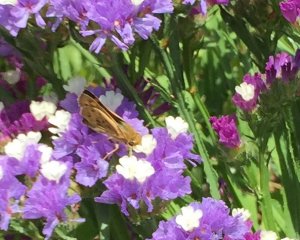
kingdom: Animalia
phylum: Arthropoda
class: Insecta
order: Lepidoptera
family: Hesperiidae
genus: Hylephila
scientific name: Hylephila phyleus
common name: Fiery Skipper
